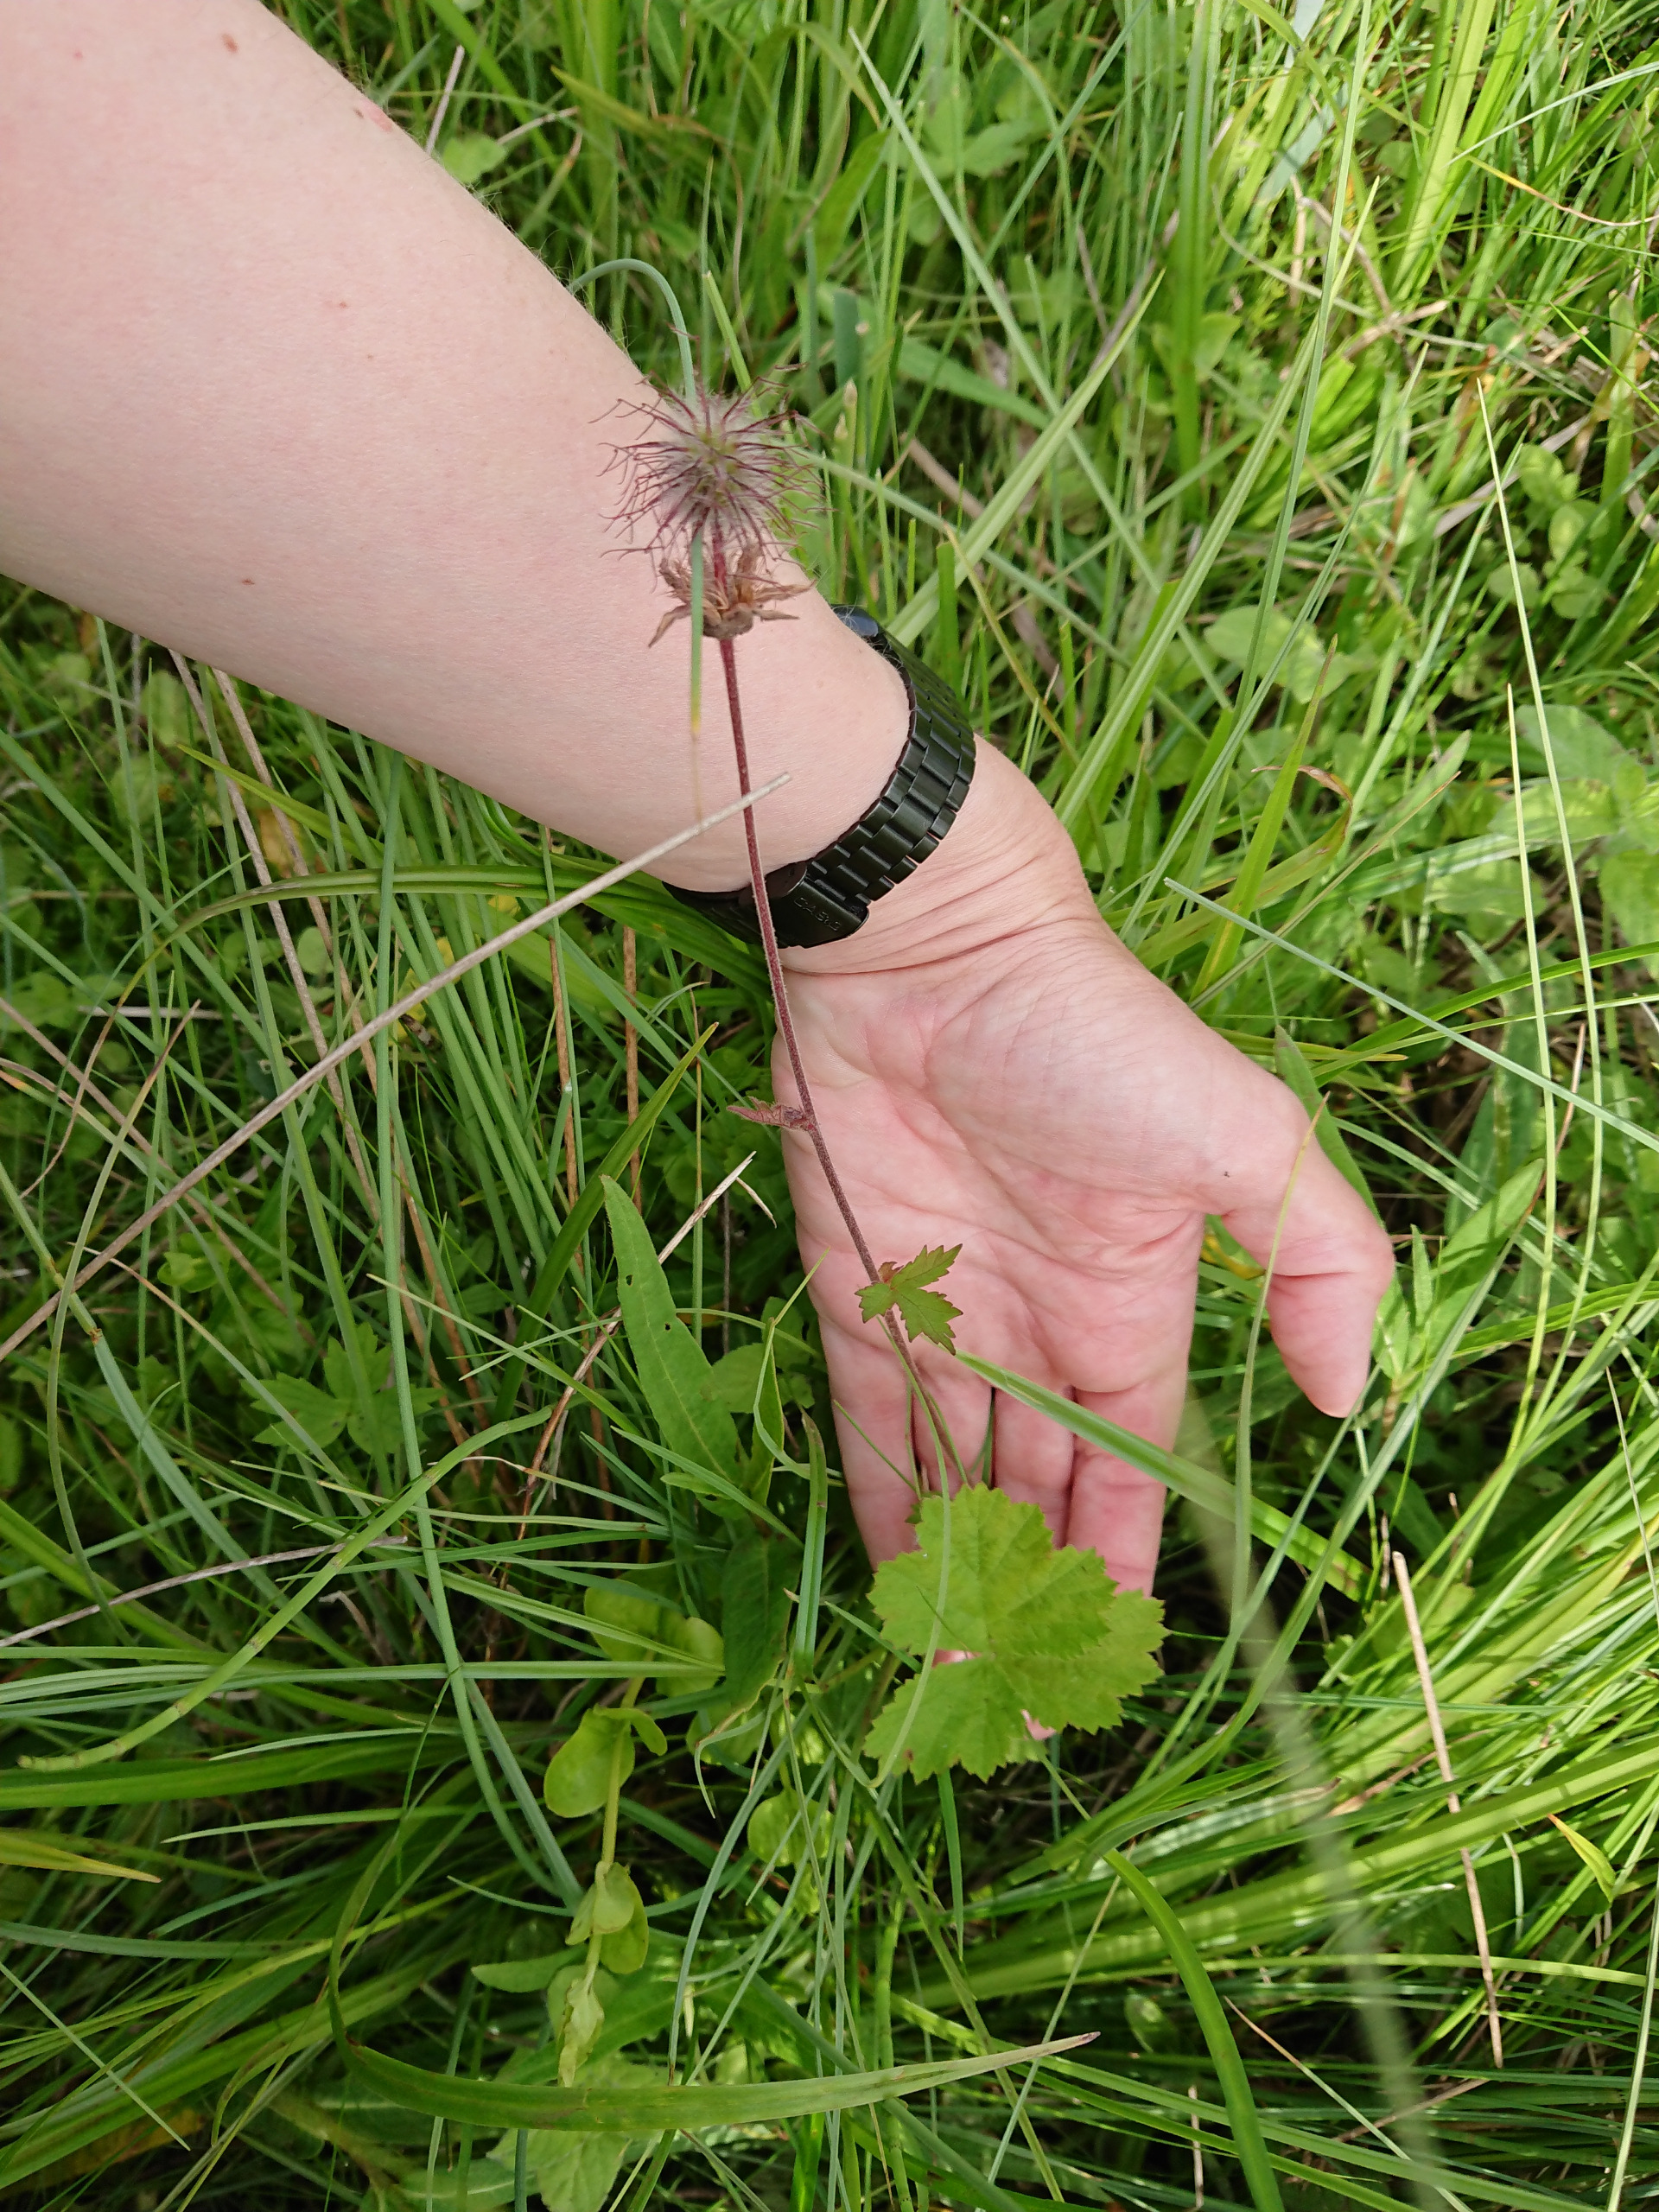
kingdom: Plantae
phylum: Tracheophyta
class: Magnoliopsida
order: Rosales
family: Rosaceae
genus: Geum
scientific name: Geum rivale
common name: Eng-nellikerod
